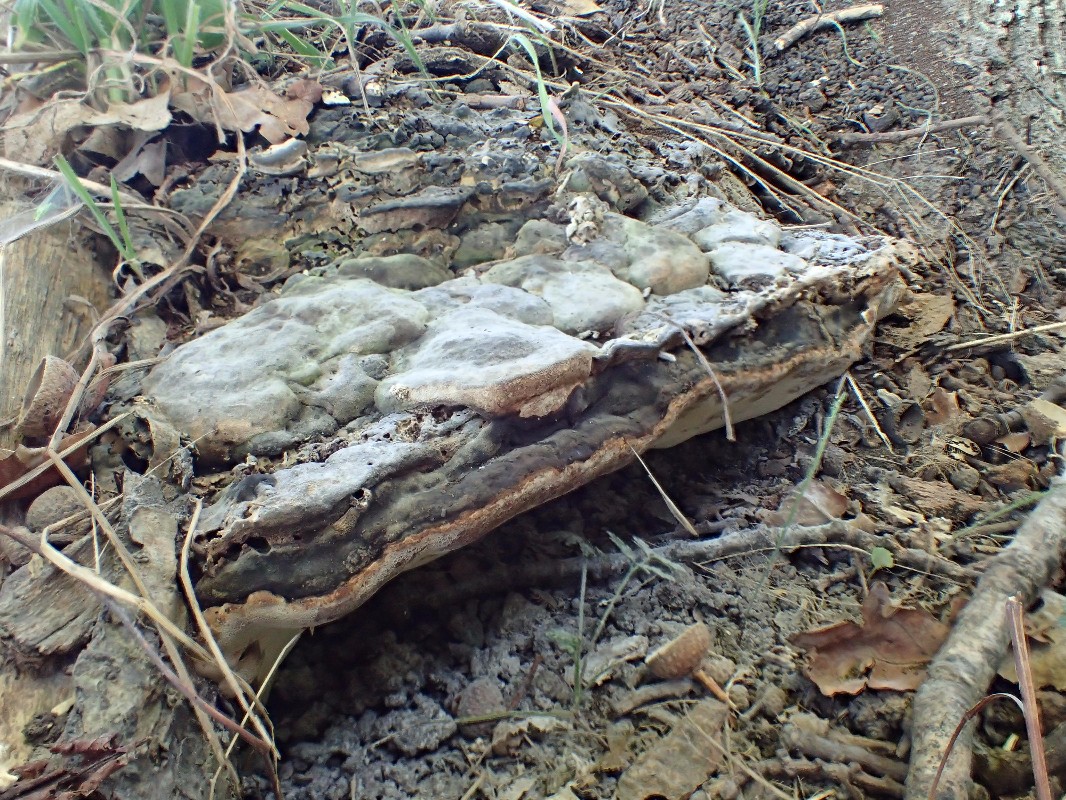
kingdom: Fungi
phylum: Basidiomycota
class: Agaricomycetes
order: Polyporales
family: Polyporaceae
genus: Vanderbylia
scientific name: Vanderbylia fraxinea
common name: stor kanelporesvamp
